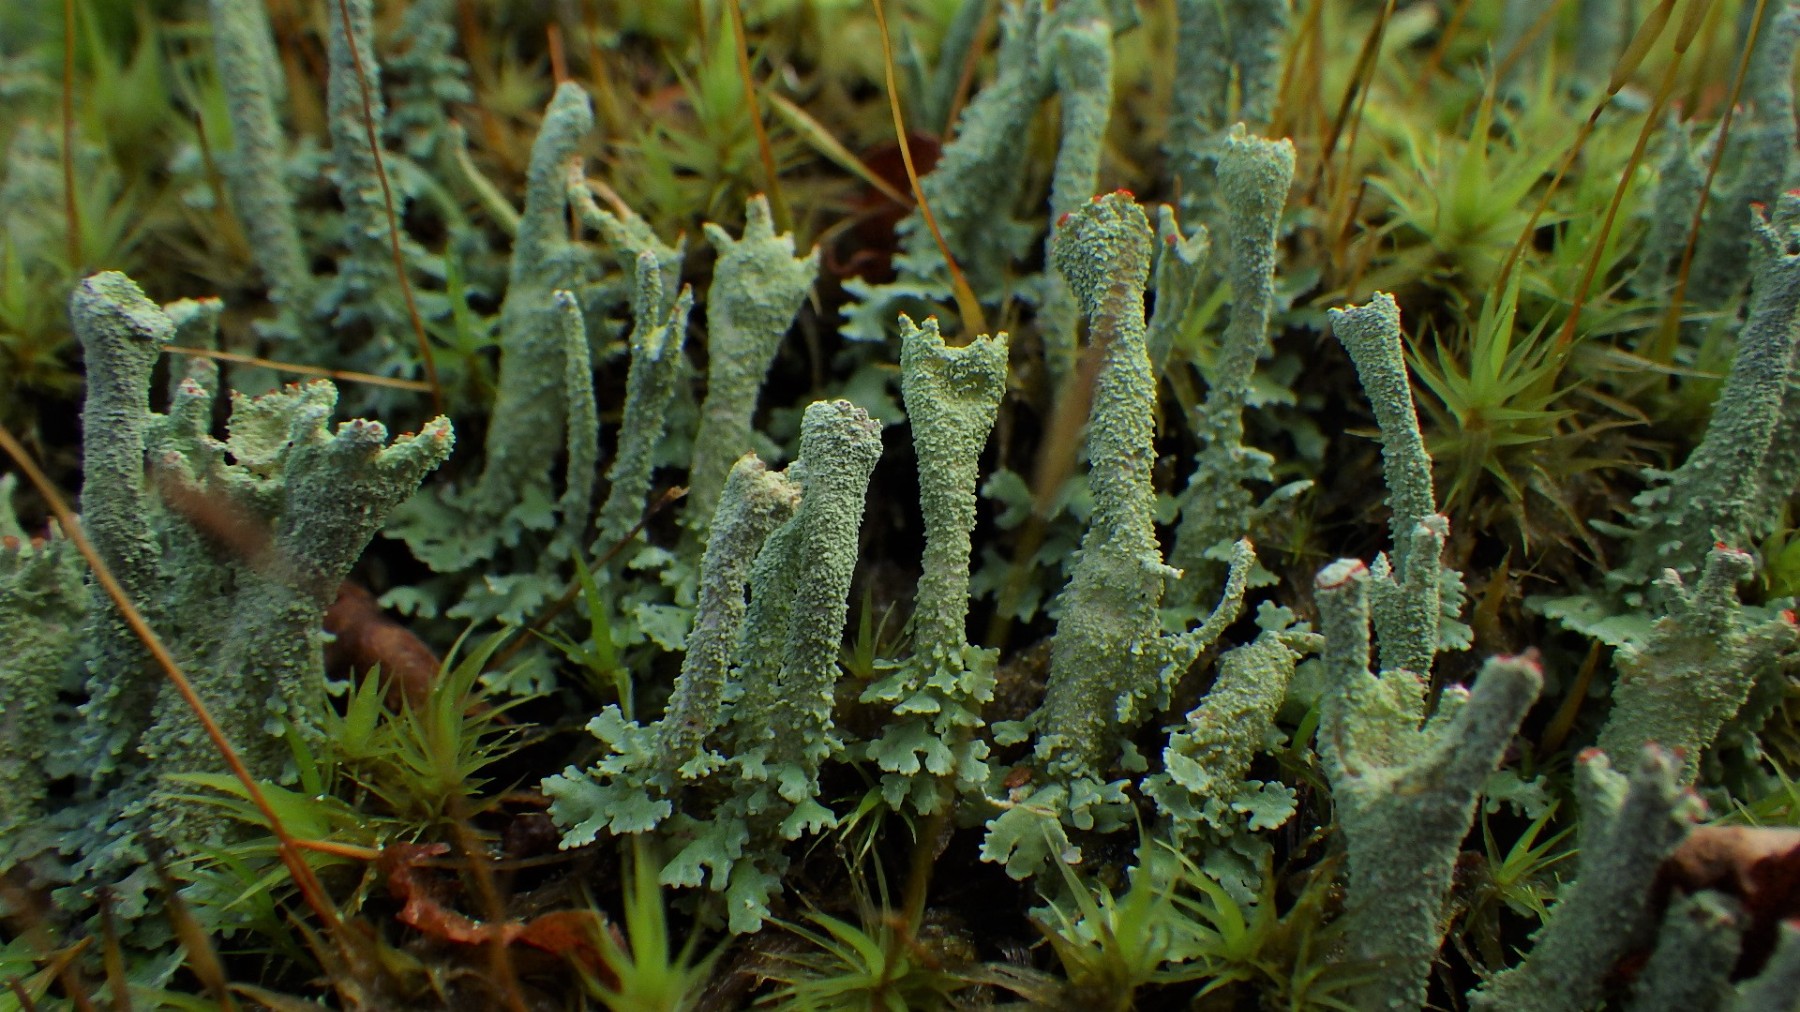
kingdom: Fungi
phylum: Ascomycota
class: Lecanoromycetes
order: Lecanorales
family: Cladoniaceae
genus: Cladonia
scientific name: Cladonia polydactyla
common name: vifte-bægerlav
